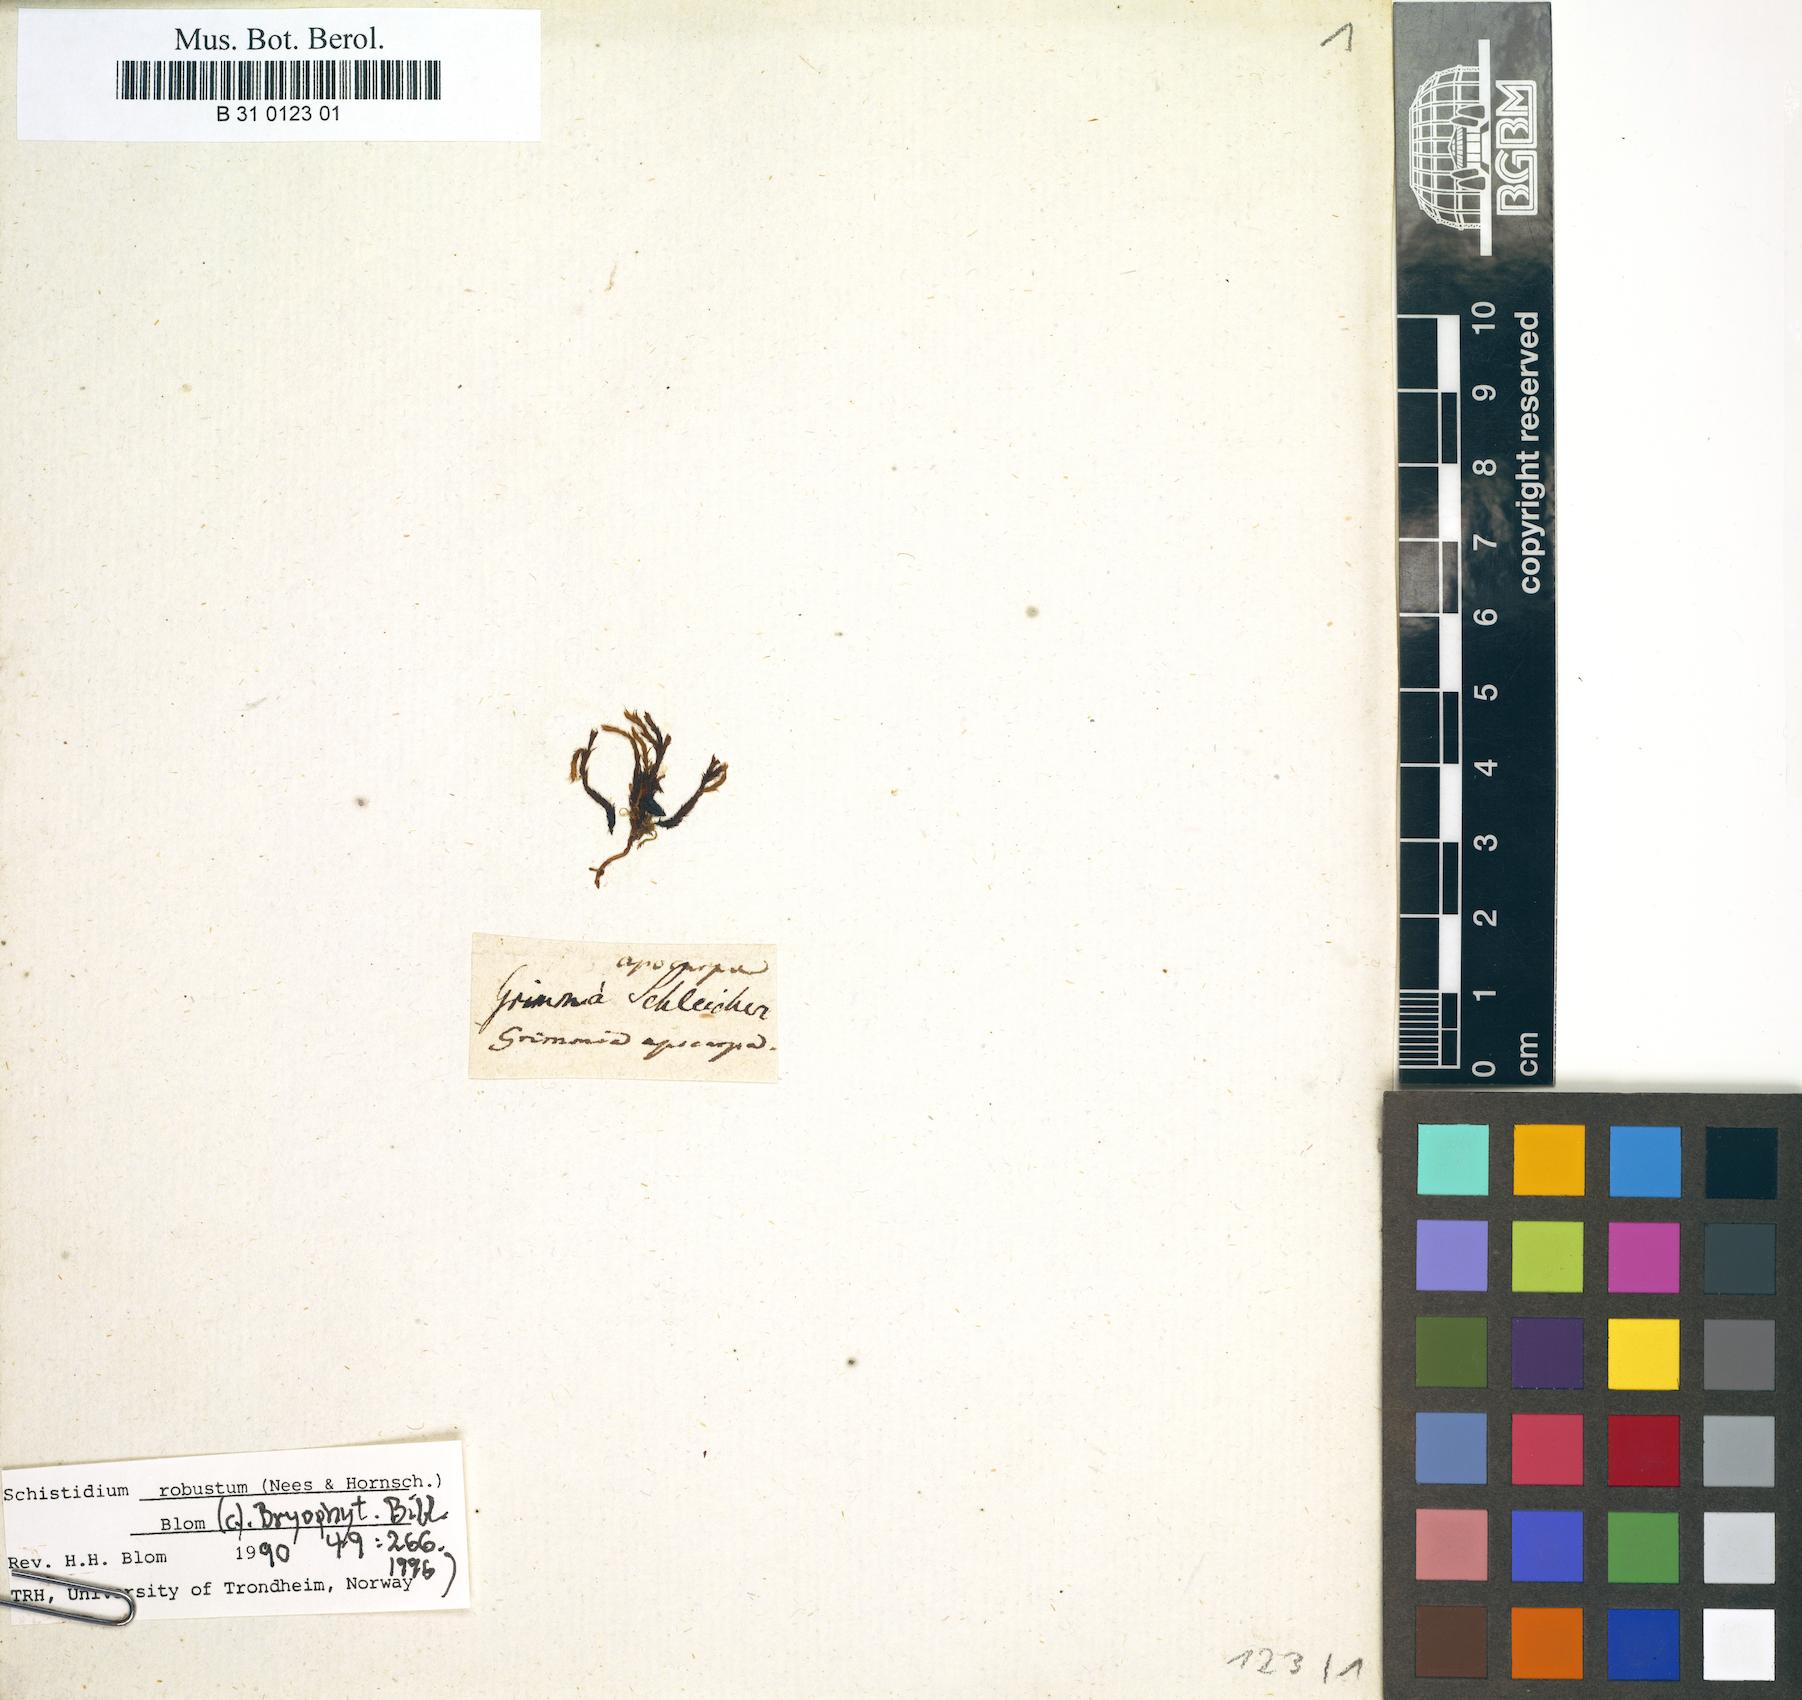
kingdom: Plantae
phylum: Bryophyta
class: Bryopsida
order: Grimmiales
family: Grimmiaceae
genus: Schistidium
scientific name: Schistidium apocarpum
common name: Radiate bloom moss
